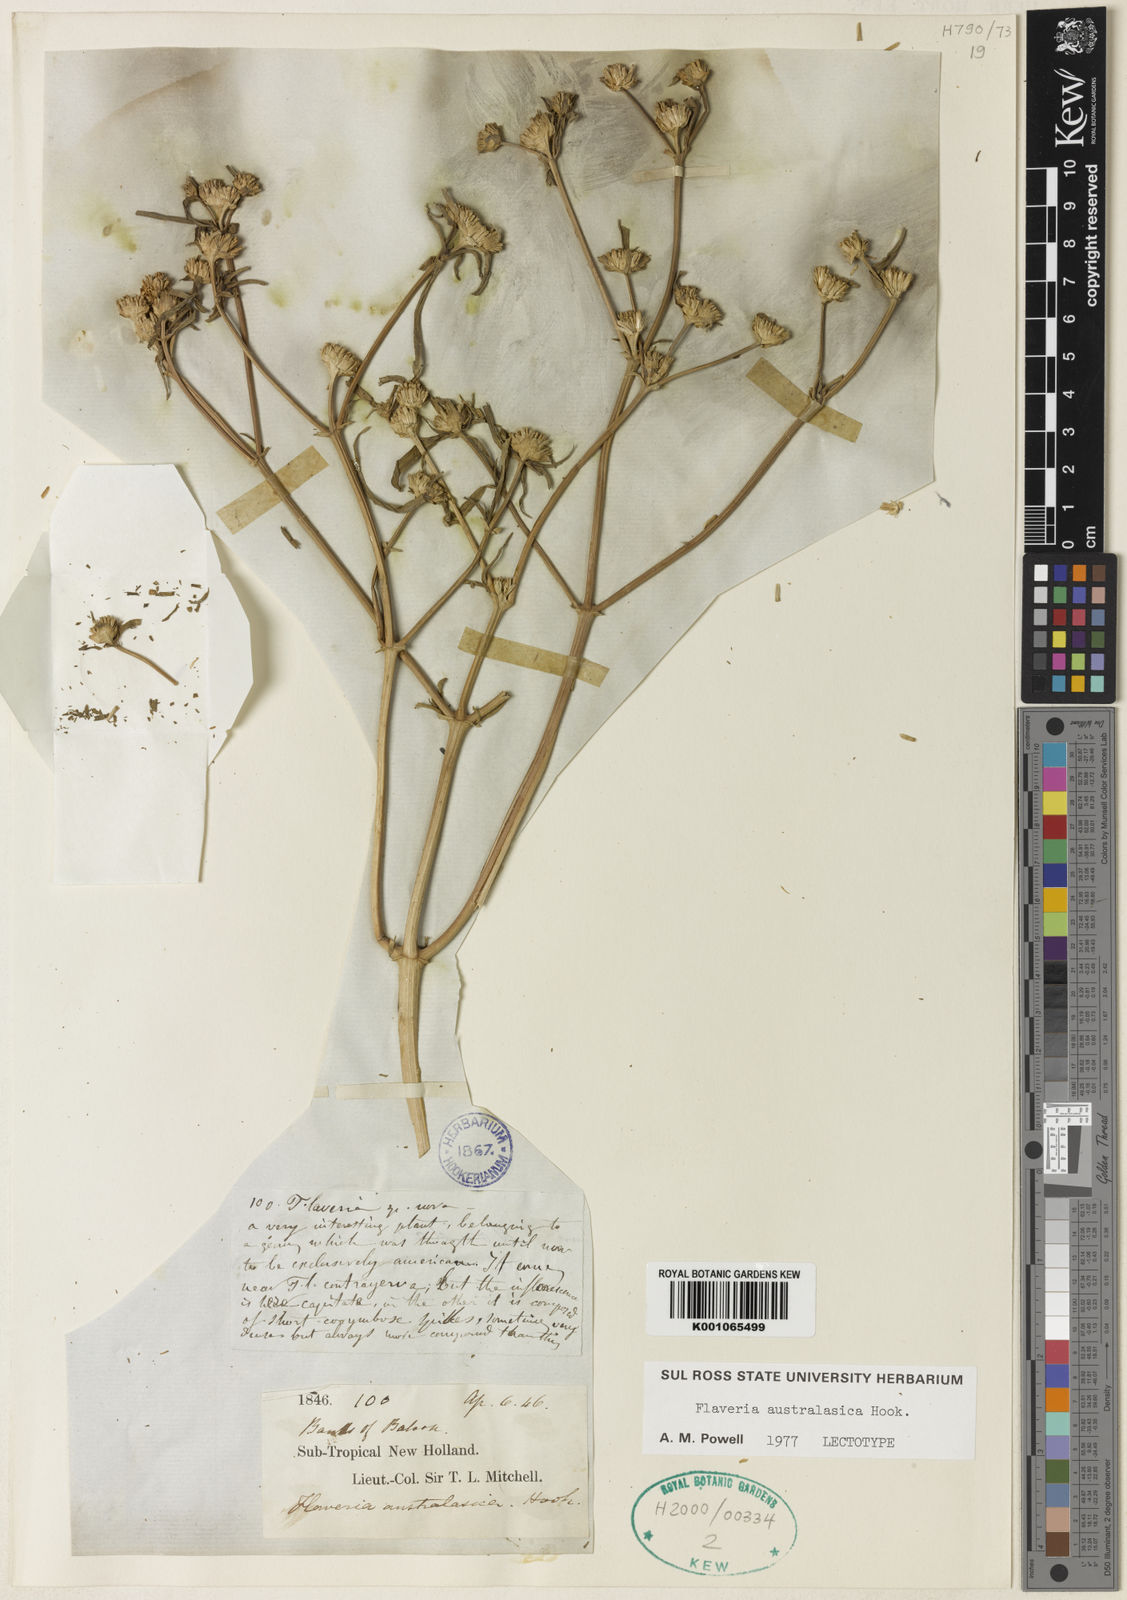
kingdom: Plantae
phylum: Tracheophyta
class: Magnoliopsida
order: Asterales
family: Asteraceae
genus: Flaveria
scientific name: Flaveria trinervia
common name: Clustered yellowtops
